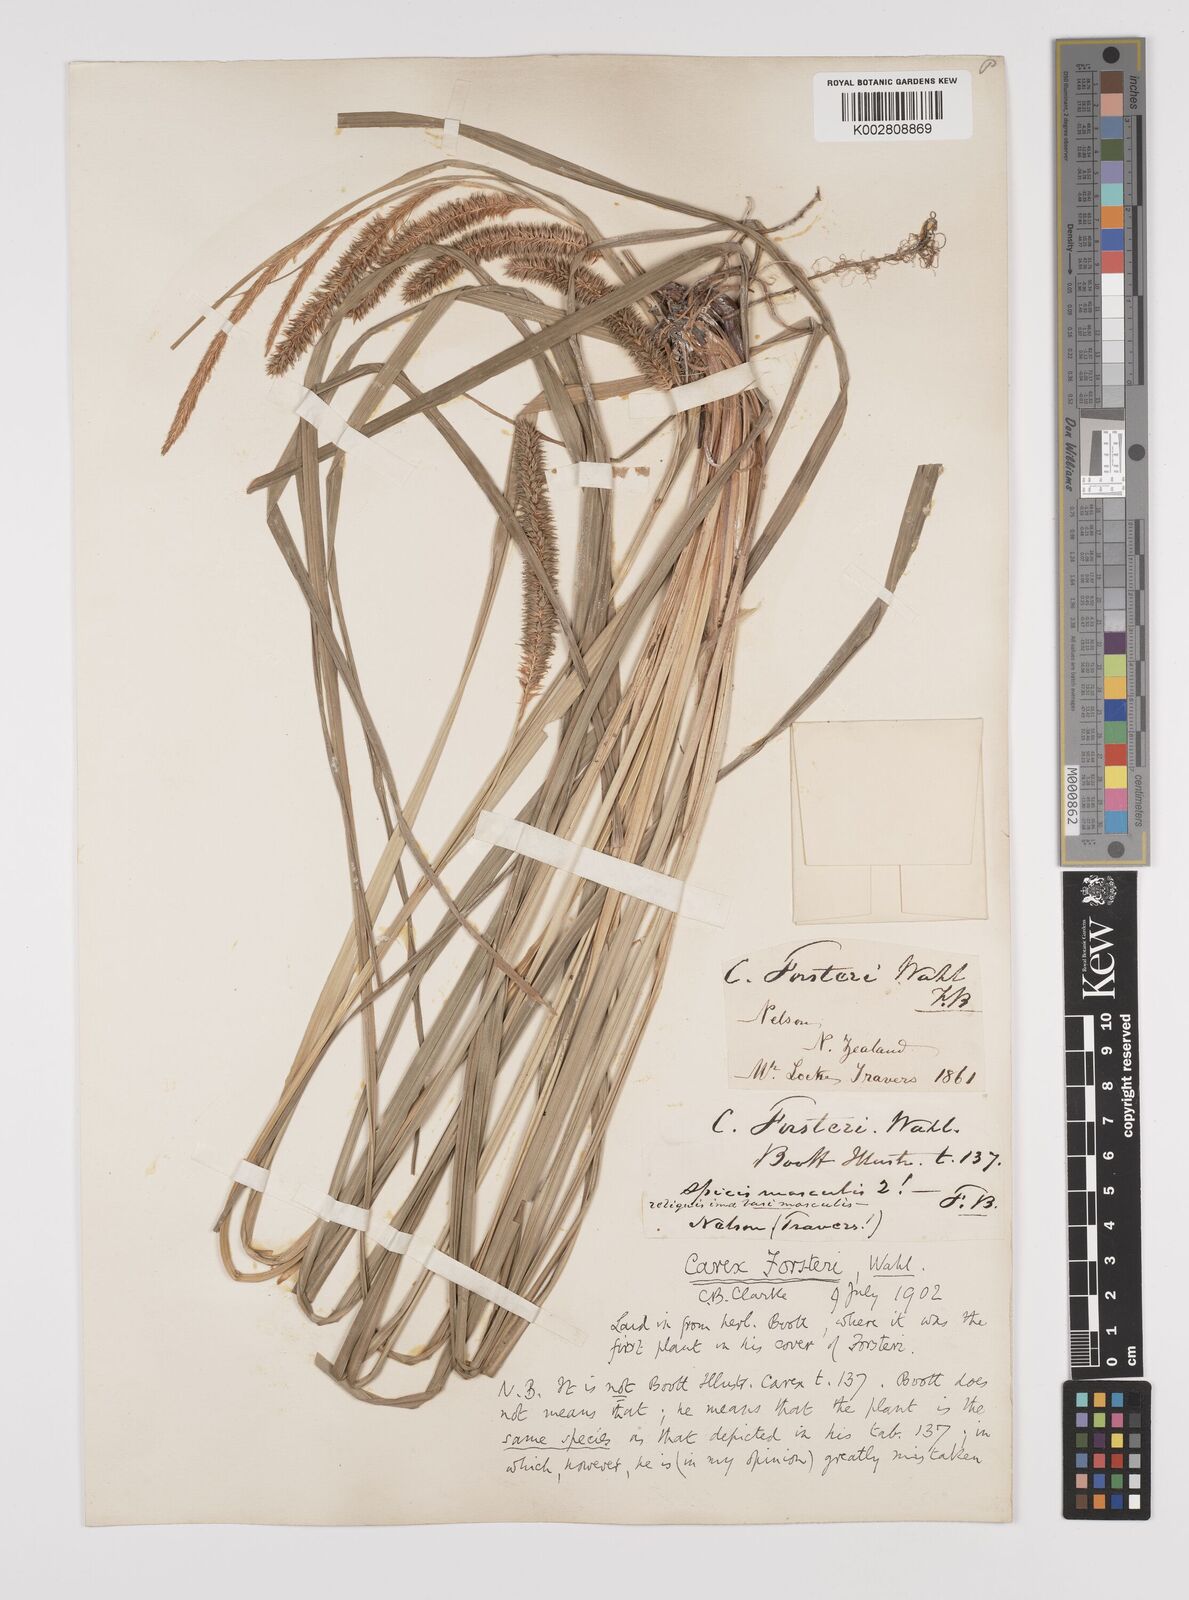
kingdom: Plantae
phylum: Tracheophyta
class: Liliopsida
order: Poales
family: Cyperaceae
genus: Carex
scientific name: Carex forsteri
